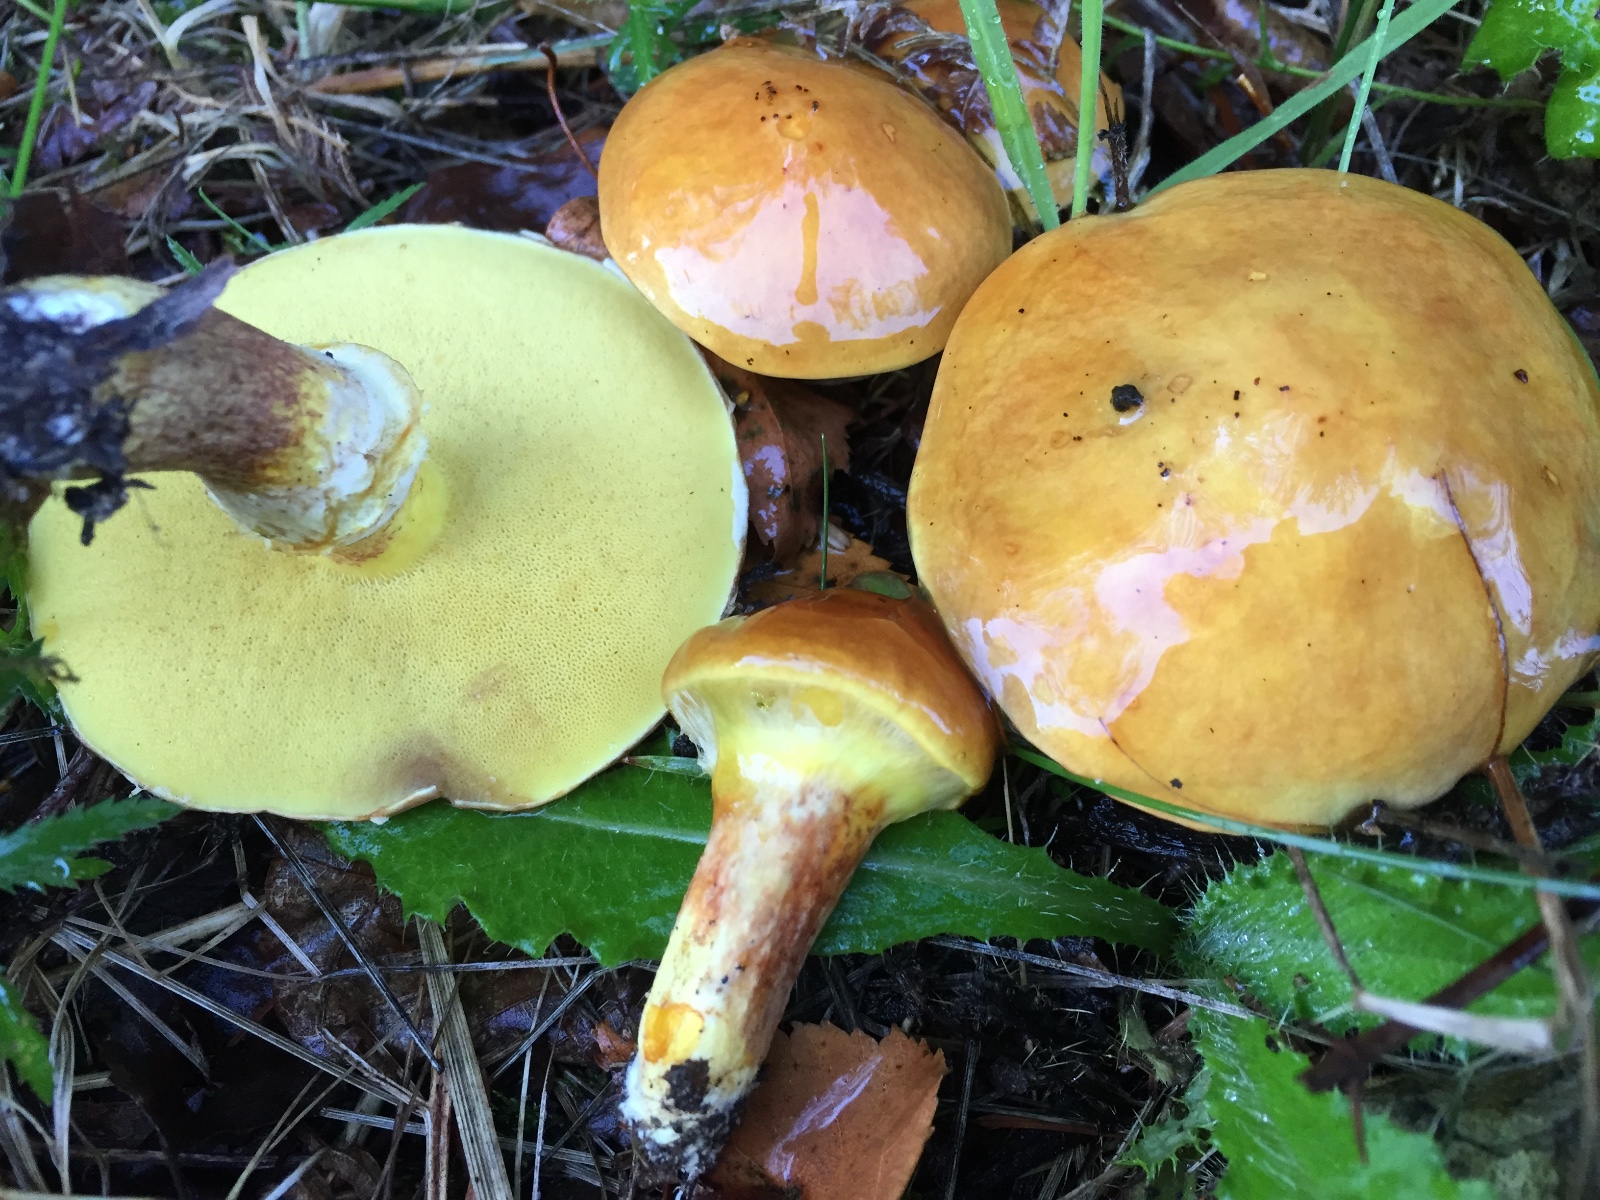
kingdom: Fungi
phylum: Basidiomycota
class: Agaricomycetes
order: Boletales
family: Suillaceae
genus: Suillus
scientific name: Suillus grevillei
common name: lærke-slimrørhat
